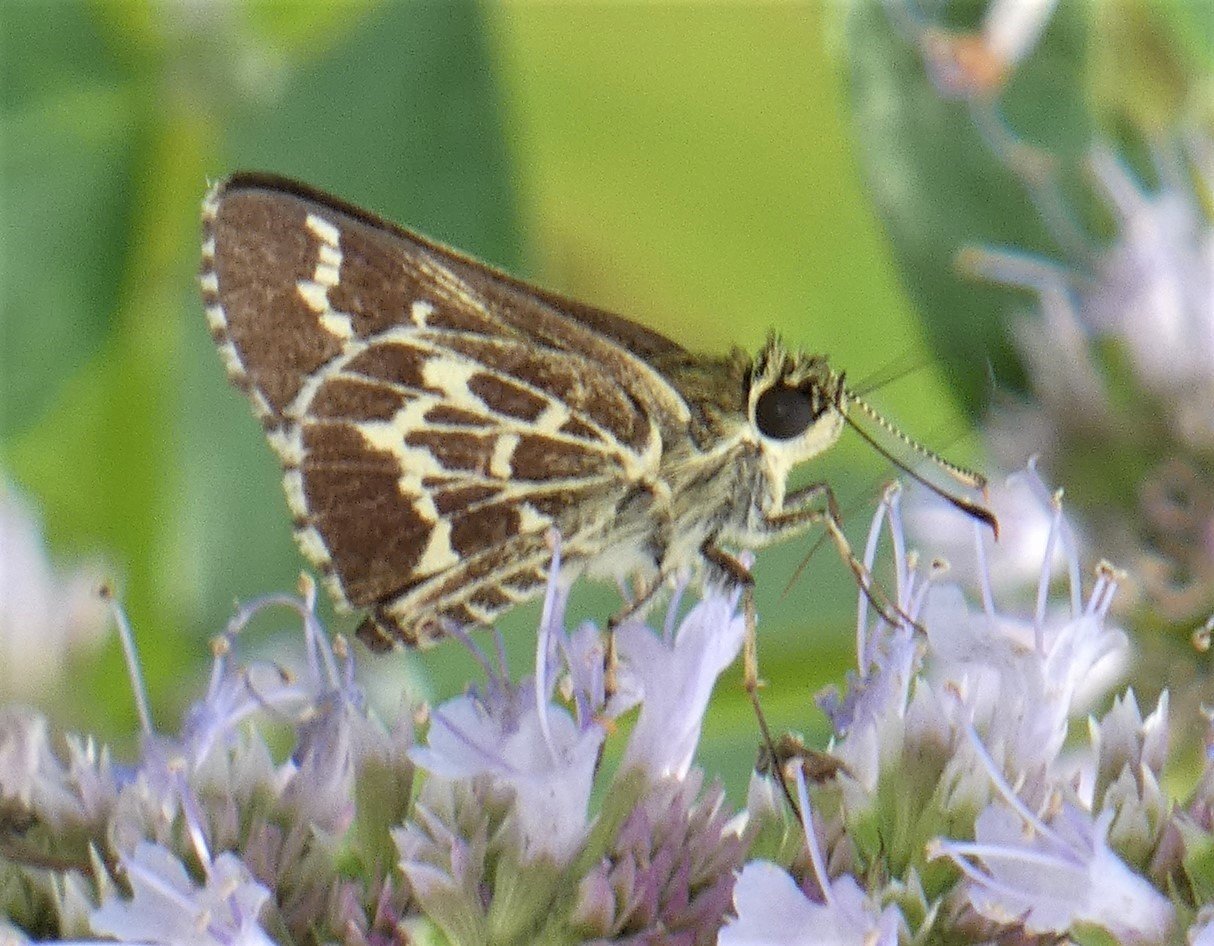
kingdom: Animalia
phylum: Arthropoda
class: Insecta
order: Lepidoptera
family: Hesperiidae
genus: Mastor
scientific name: Mastor aesculapius
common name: Lace-winged Roadside-Skipper
